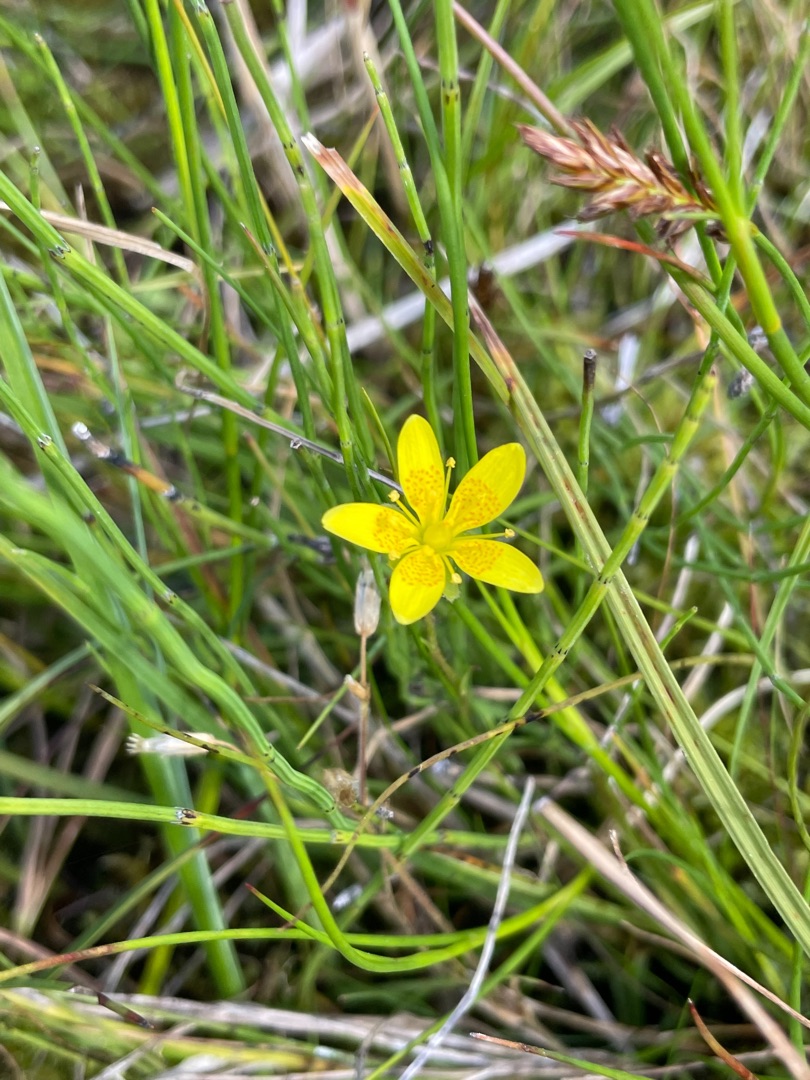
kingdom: Plantae
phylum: Tracheophyta
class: Magnoliopsida
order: Saxifragales
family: Saxifragaceae
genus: Saxifraga
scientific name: Saxifraga hirculus
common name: Gul stenbræk
